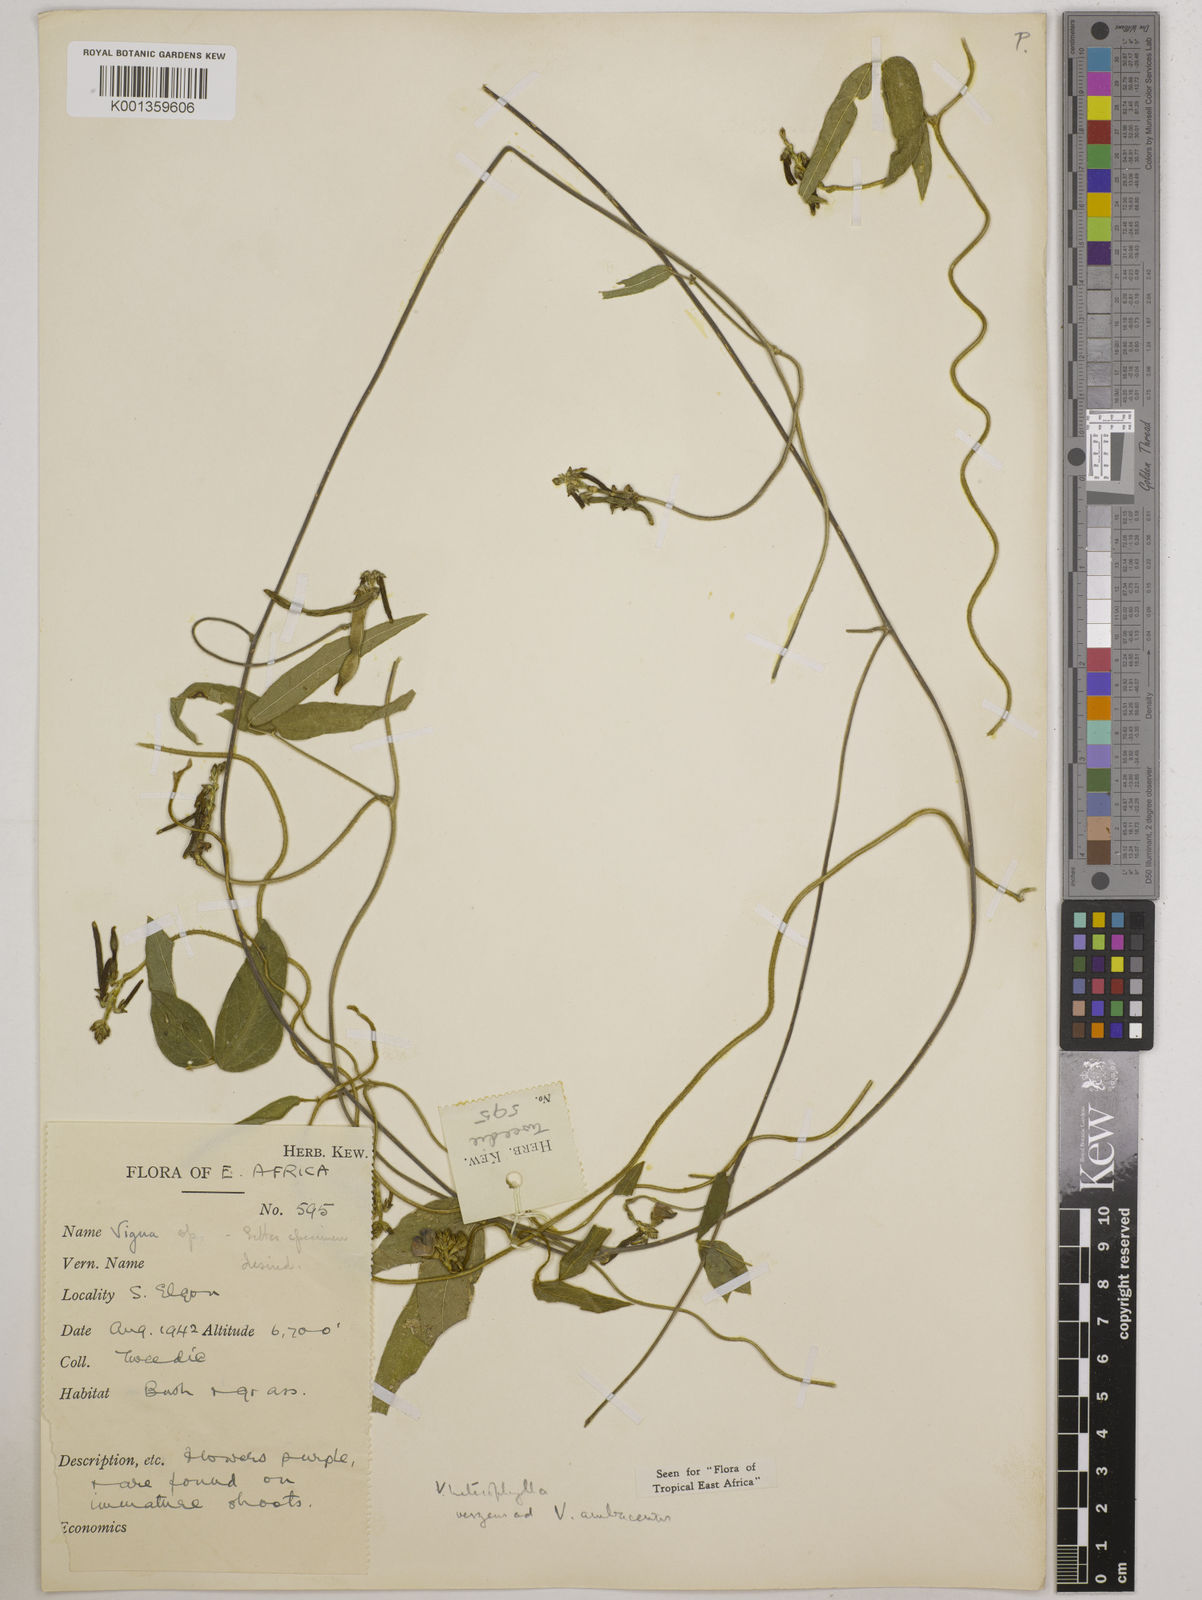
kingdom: Plantae
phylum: Tracheophyta
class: Magnoliopsida
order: Fabales
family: Fabaceae
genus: Vigna
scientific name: Vigna heterophylla
